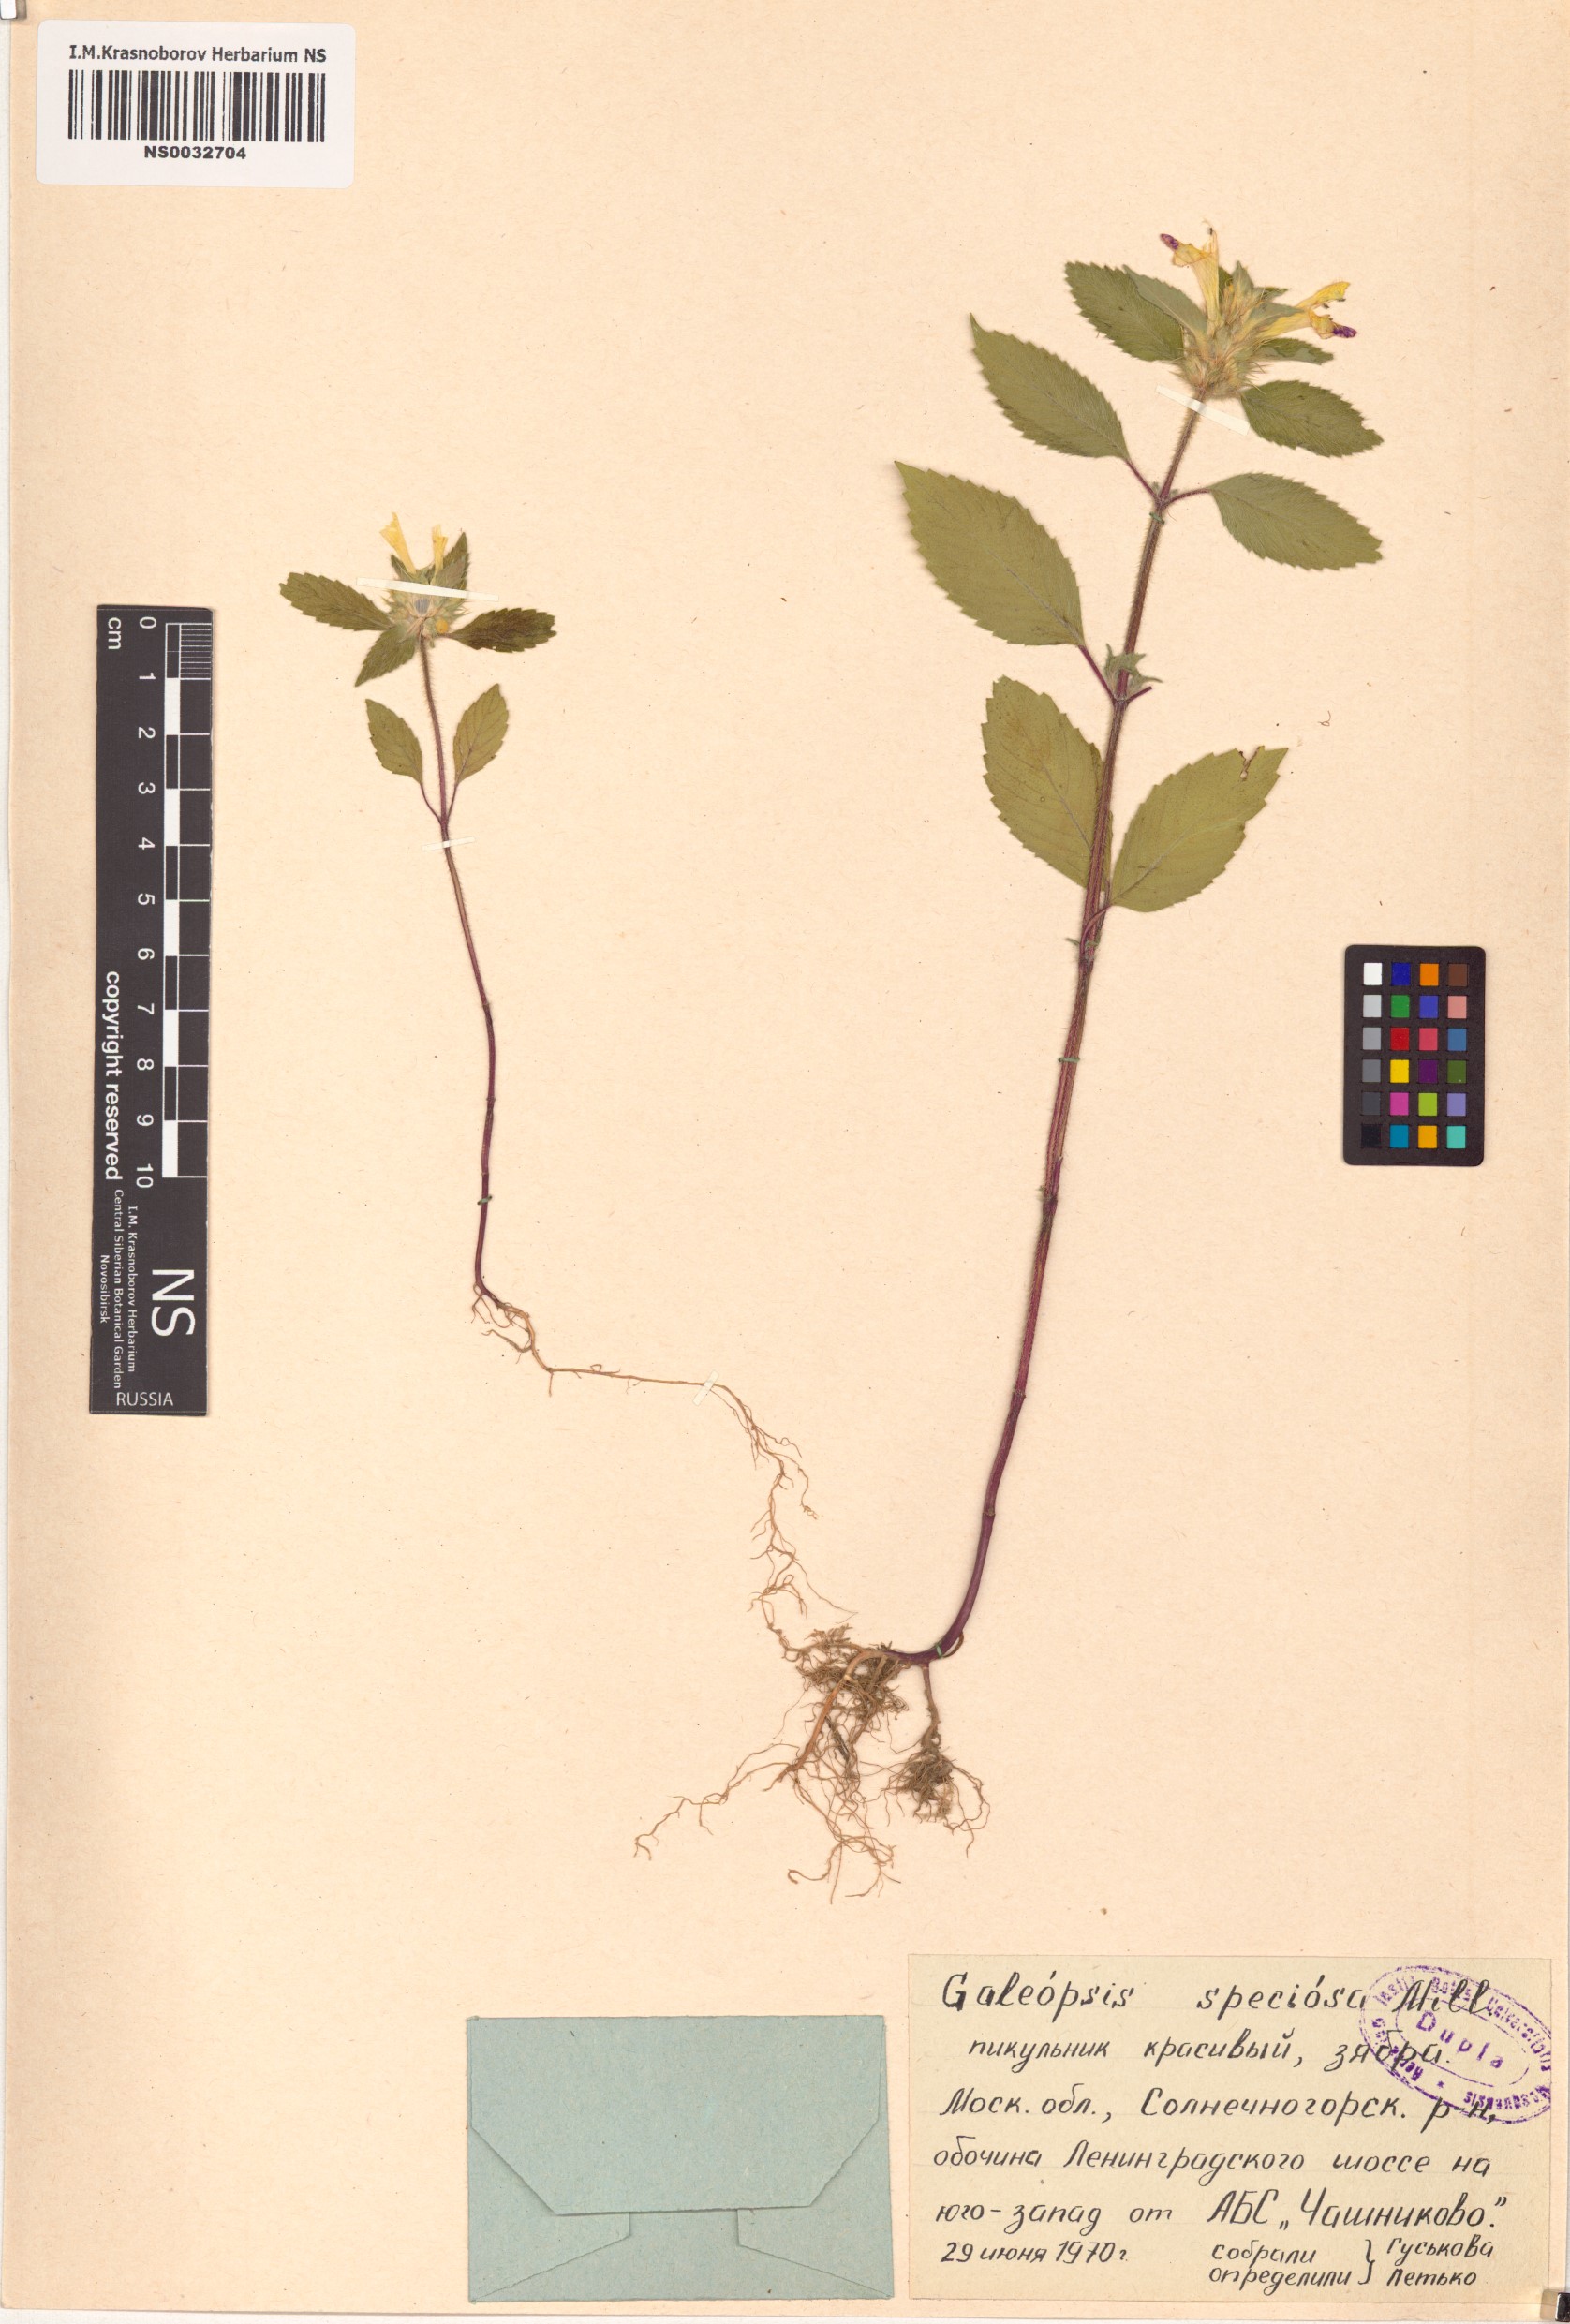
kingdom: Plantae
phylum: Tracheophyta
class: Magnoliopsida
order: Lamiales
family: Lamiaceae
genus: Galeopsis
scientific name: Galeopsis speciosa
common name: Large-flowered hemp-nettle
